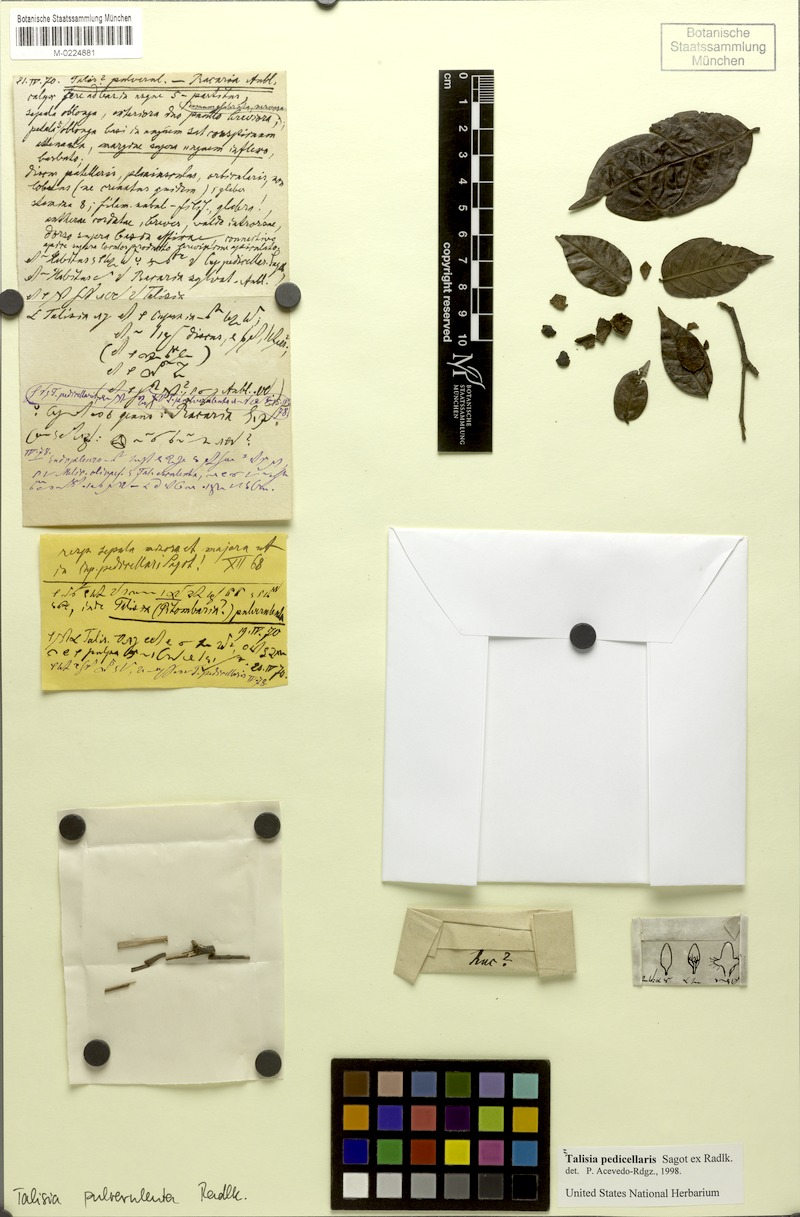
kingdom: Plantae
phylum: Tracheophyta
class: Magnoliopsida
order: Sapindales
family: Sapindaceae
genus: Melicoccus
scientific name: Melicoccus pedicellaris
